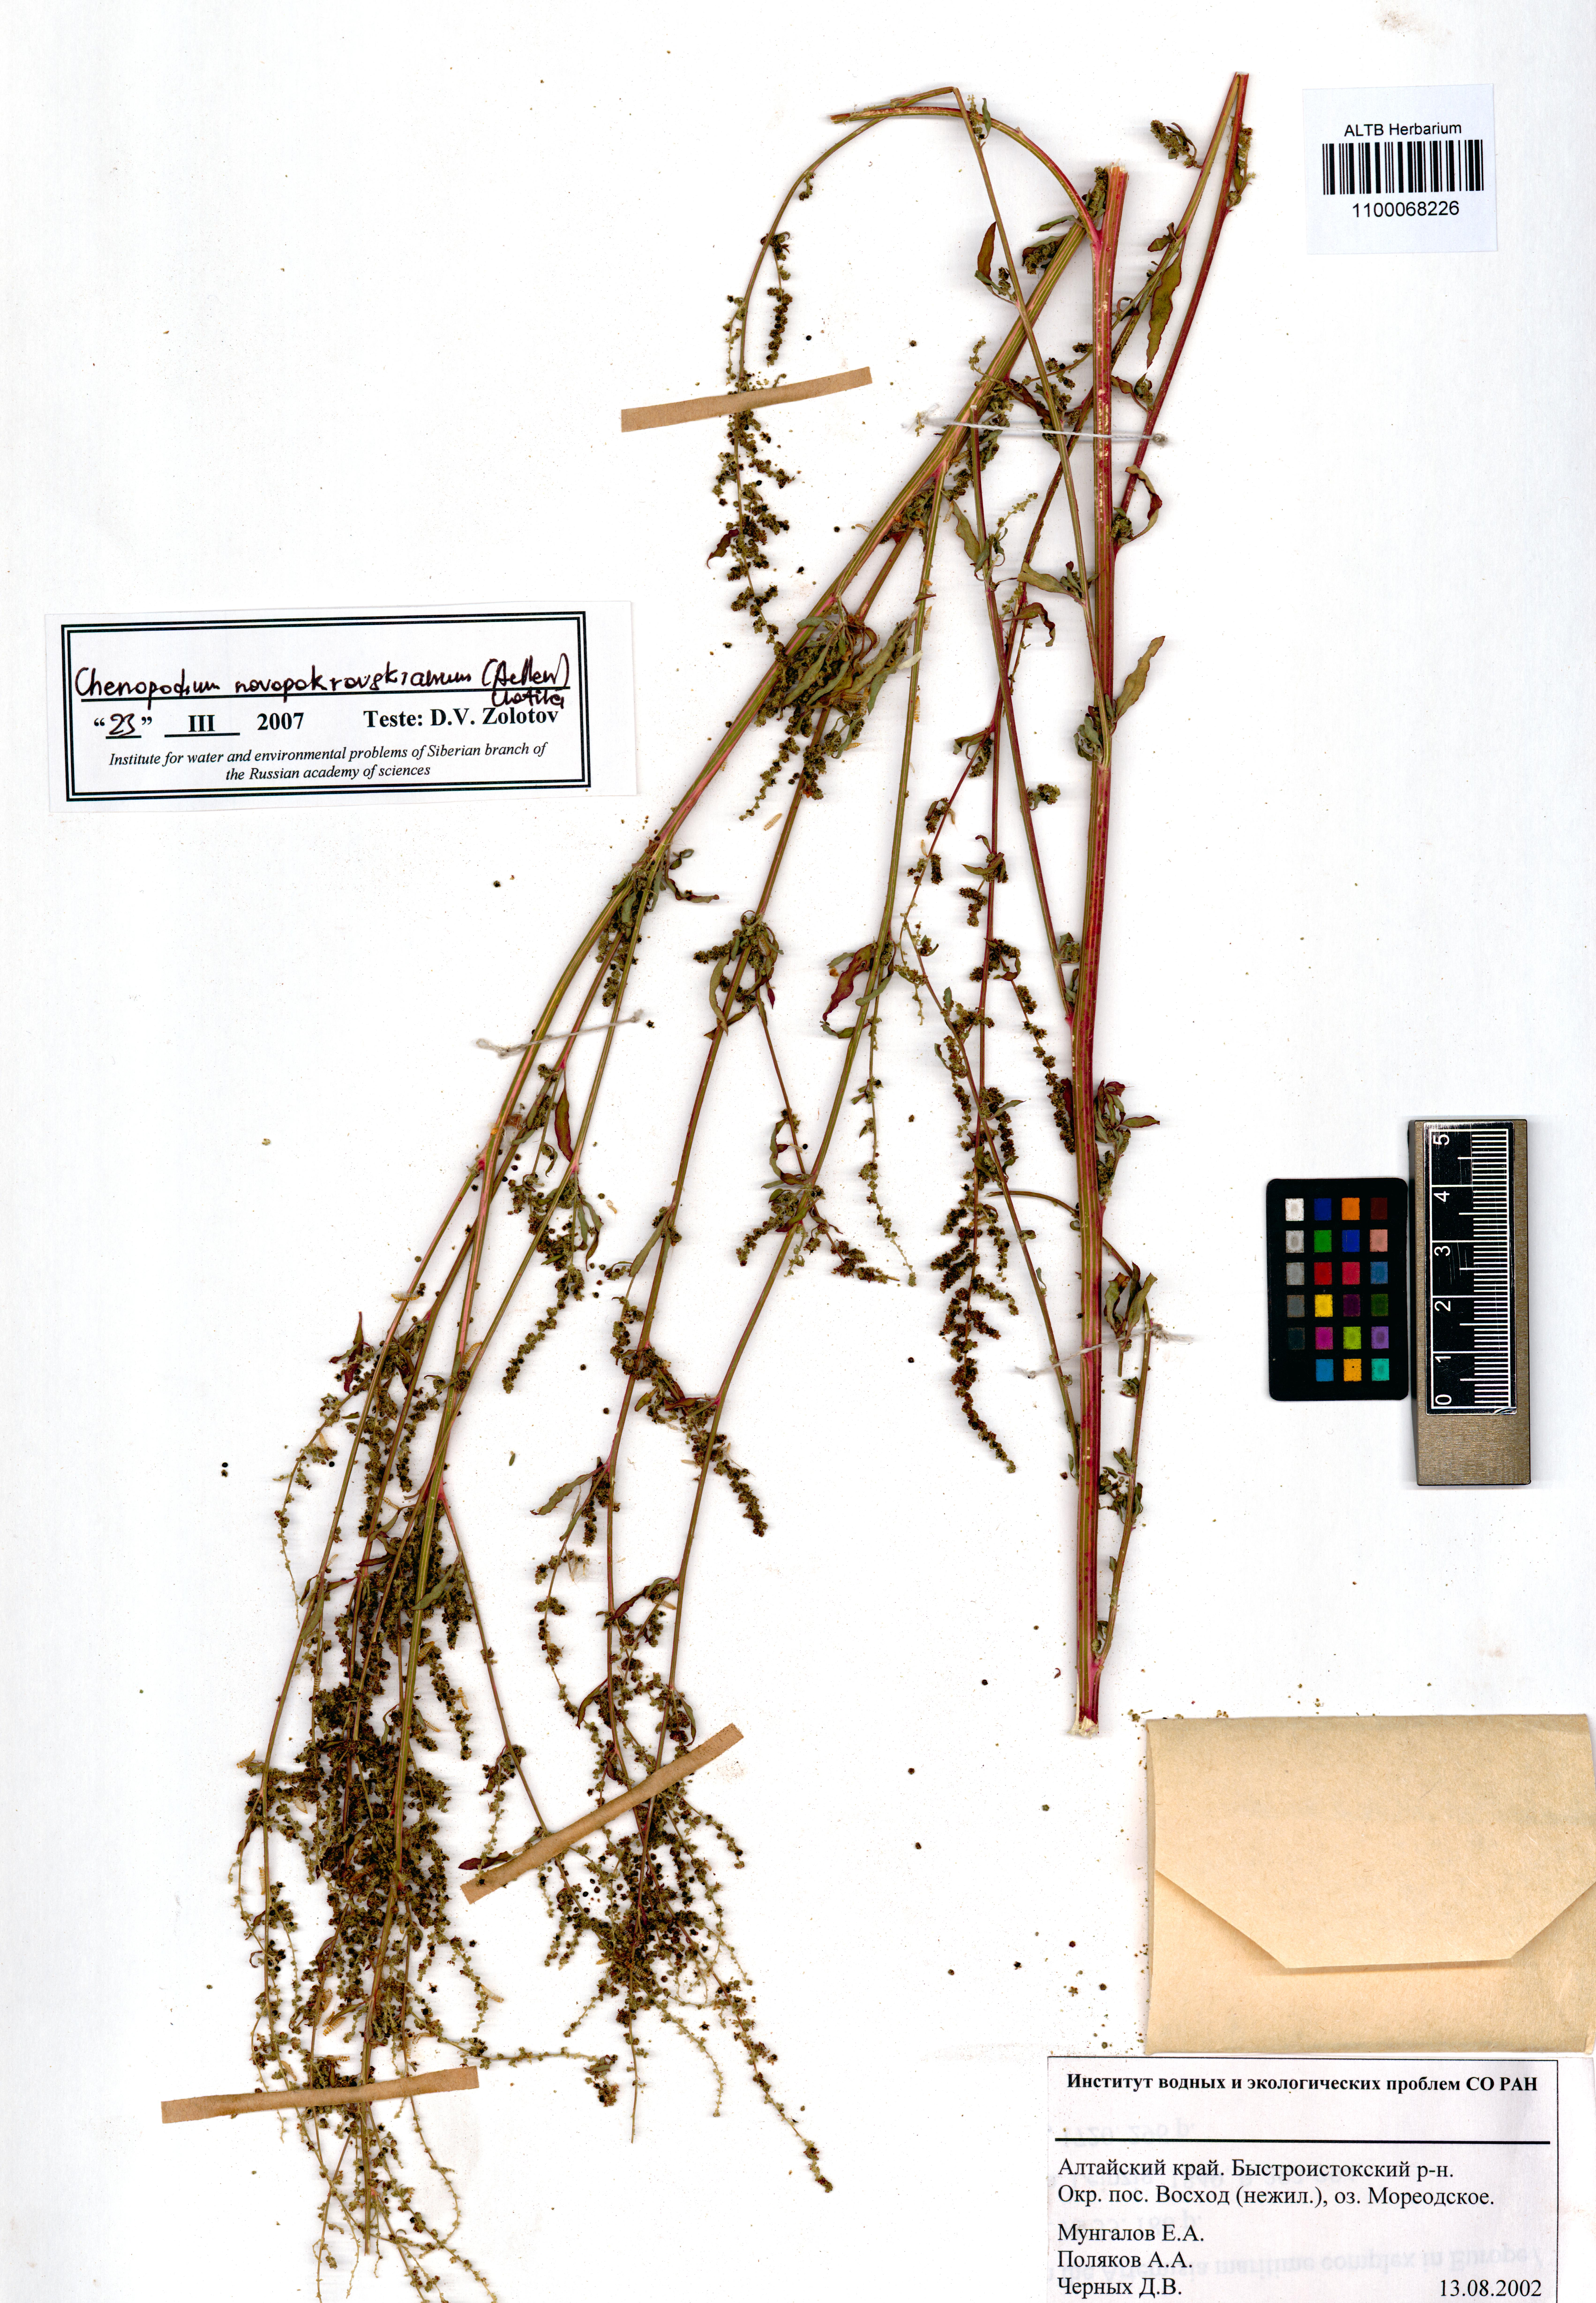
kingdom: Plantae
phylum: Tracheophyta
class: Magnoliopsida
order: Caryophyllales
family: Amaranthaceae
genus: Chenopodium
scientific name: Chenopodium novopokrovskyanum
